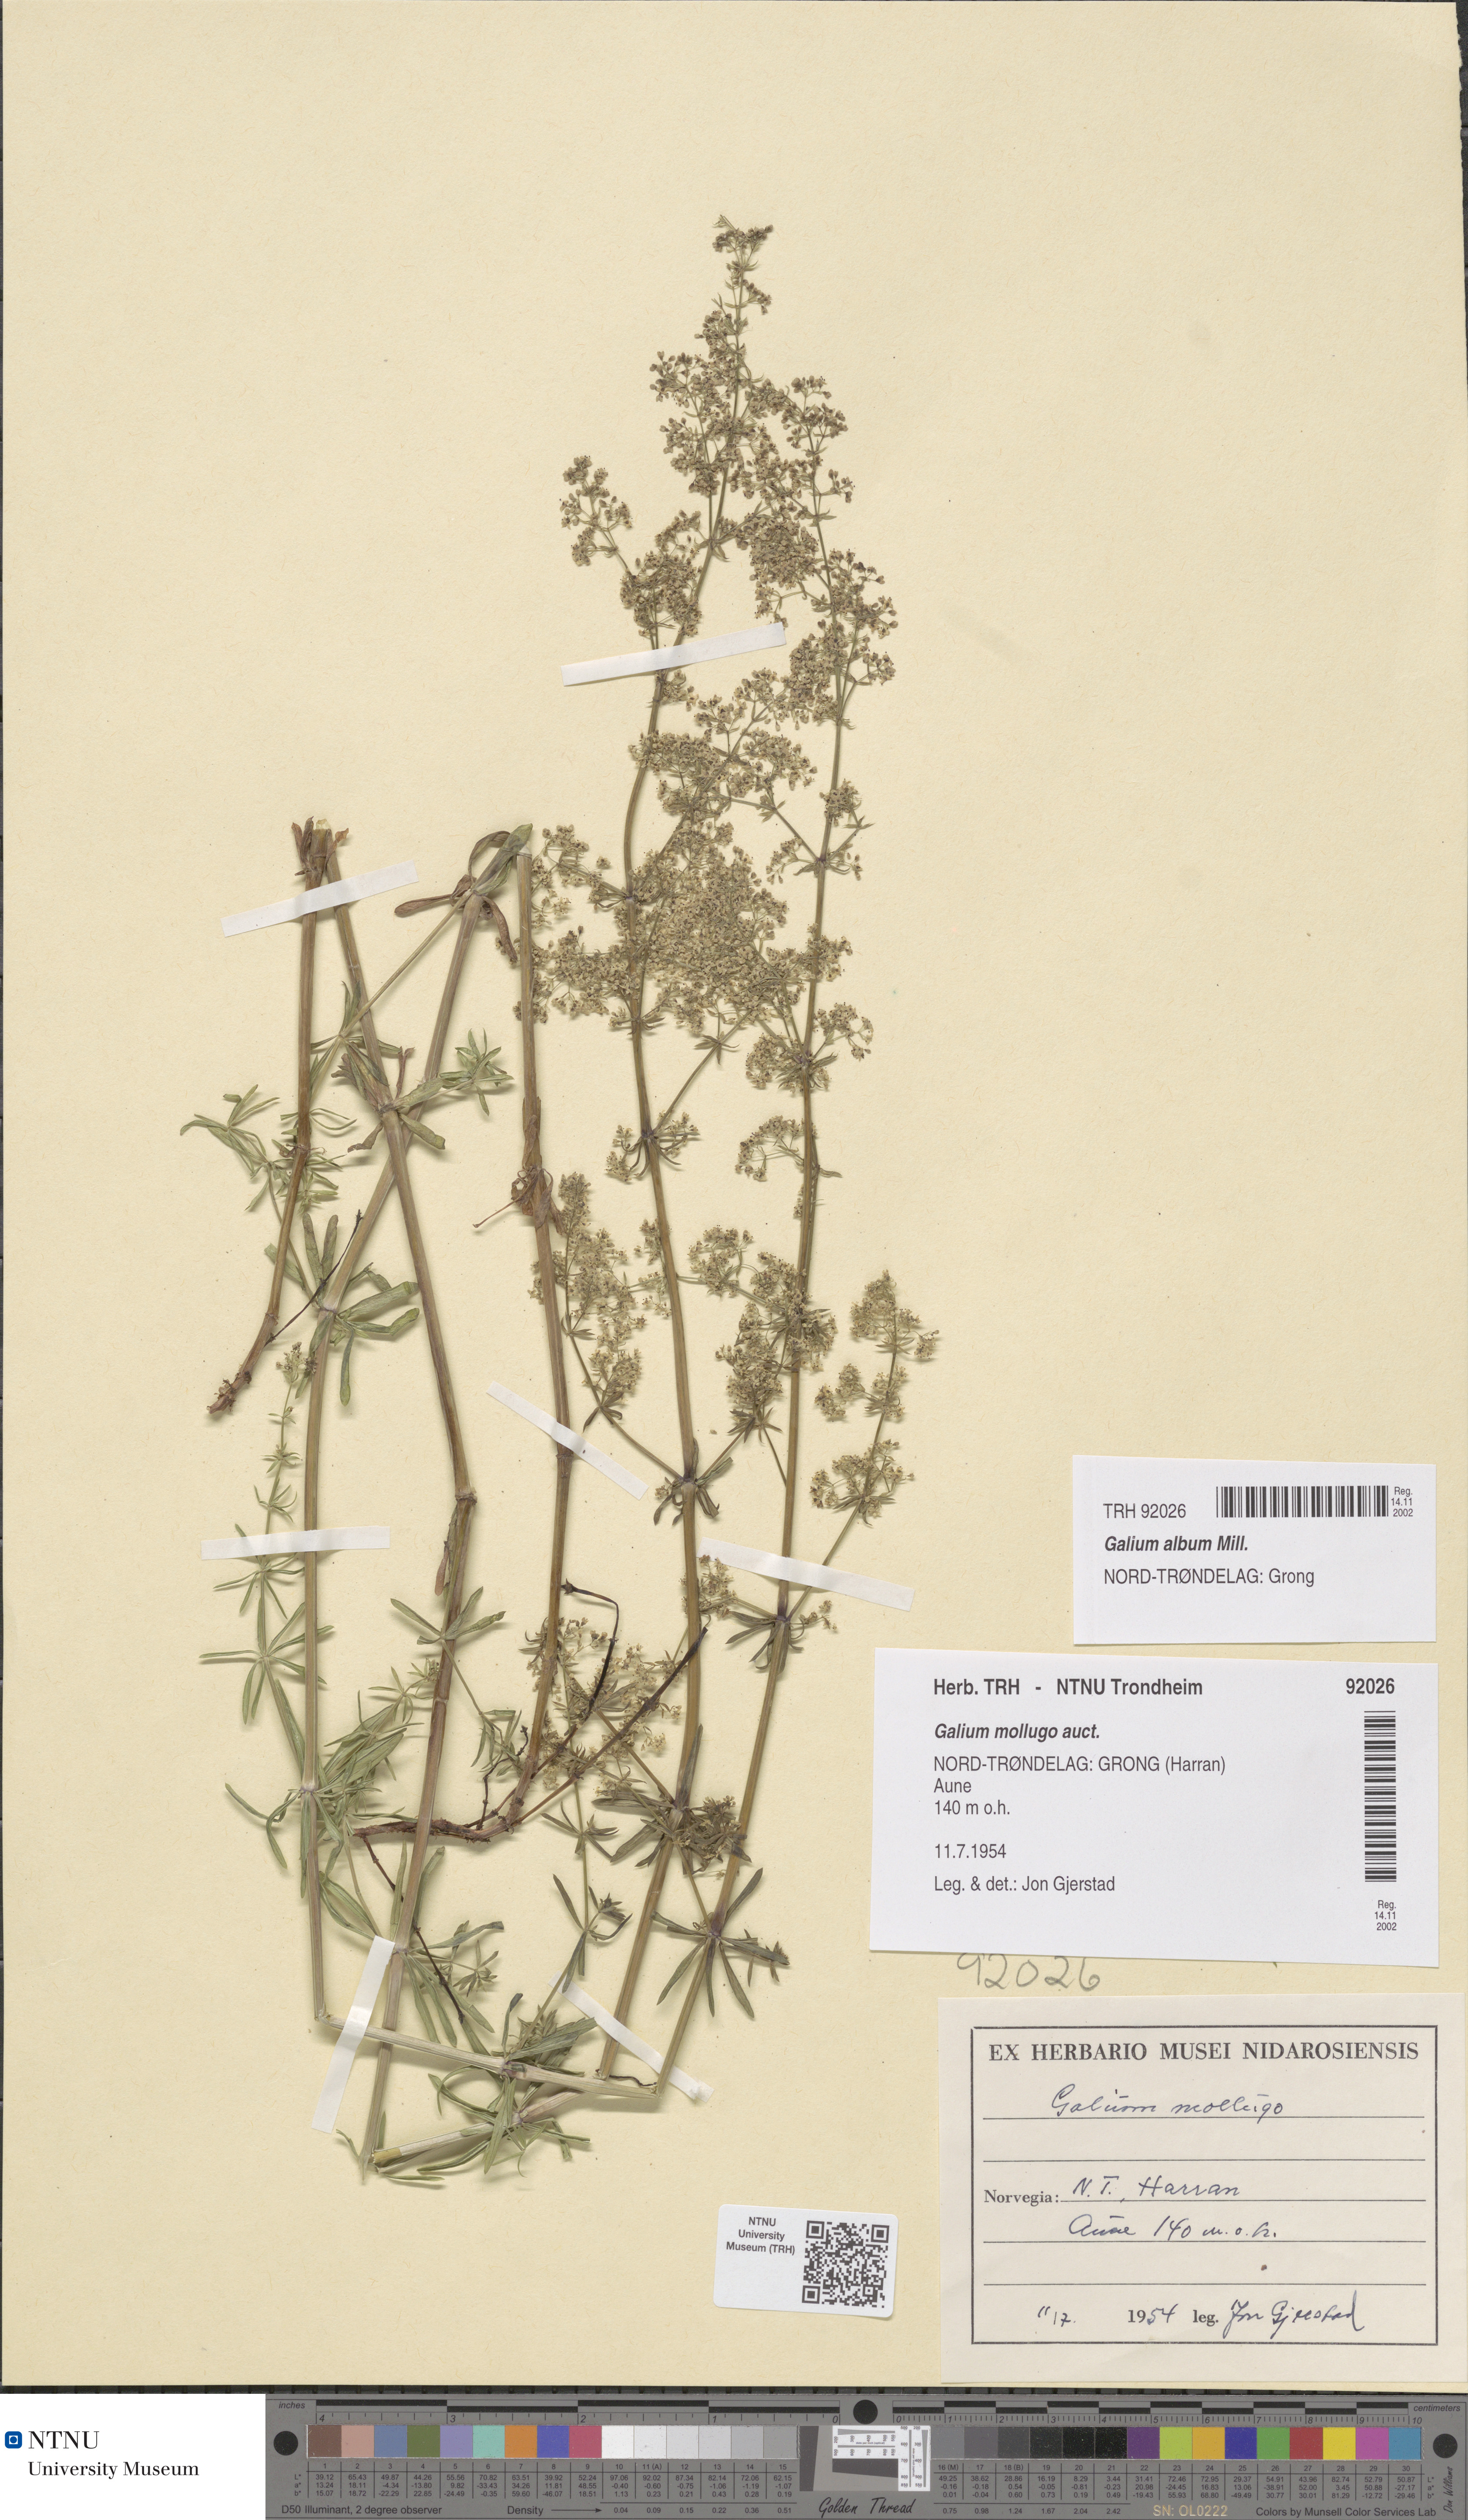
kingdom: Plantae
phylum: Tracheophyta
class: Magnoliopsida
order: Gentianales
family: Rubiaceae
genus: Galium
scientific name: Galium album
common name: White bedstraw
